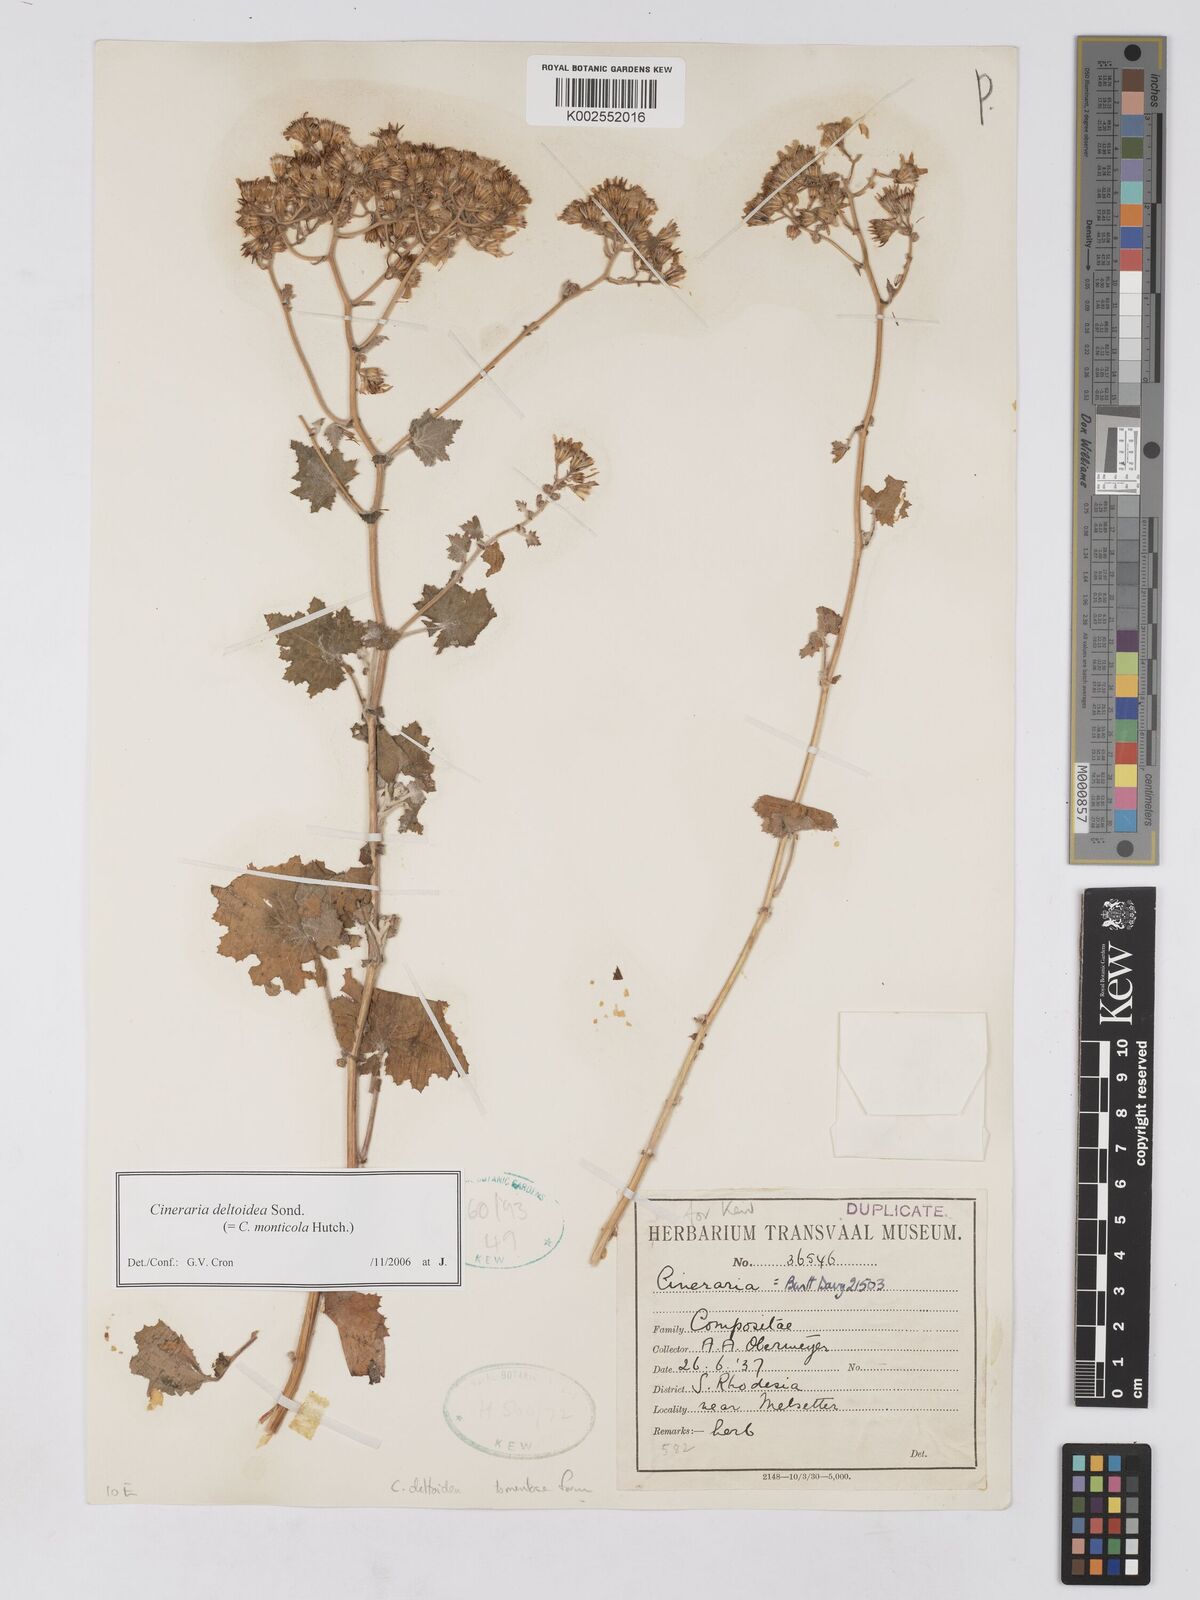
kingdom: Plantae
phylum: Tracheophyta
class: Magnoliopsida
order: Asterales
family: Asteraceae
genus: Cineraria
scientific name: Cineraria deltoidea
